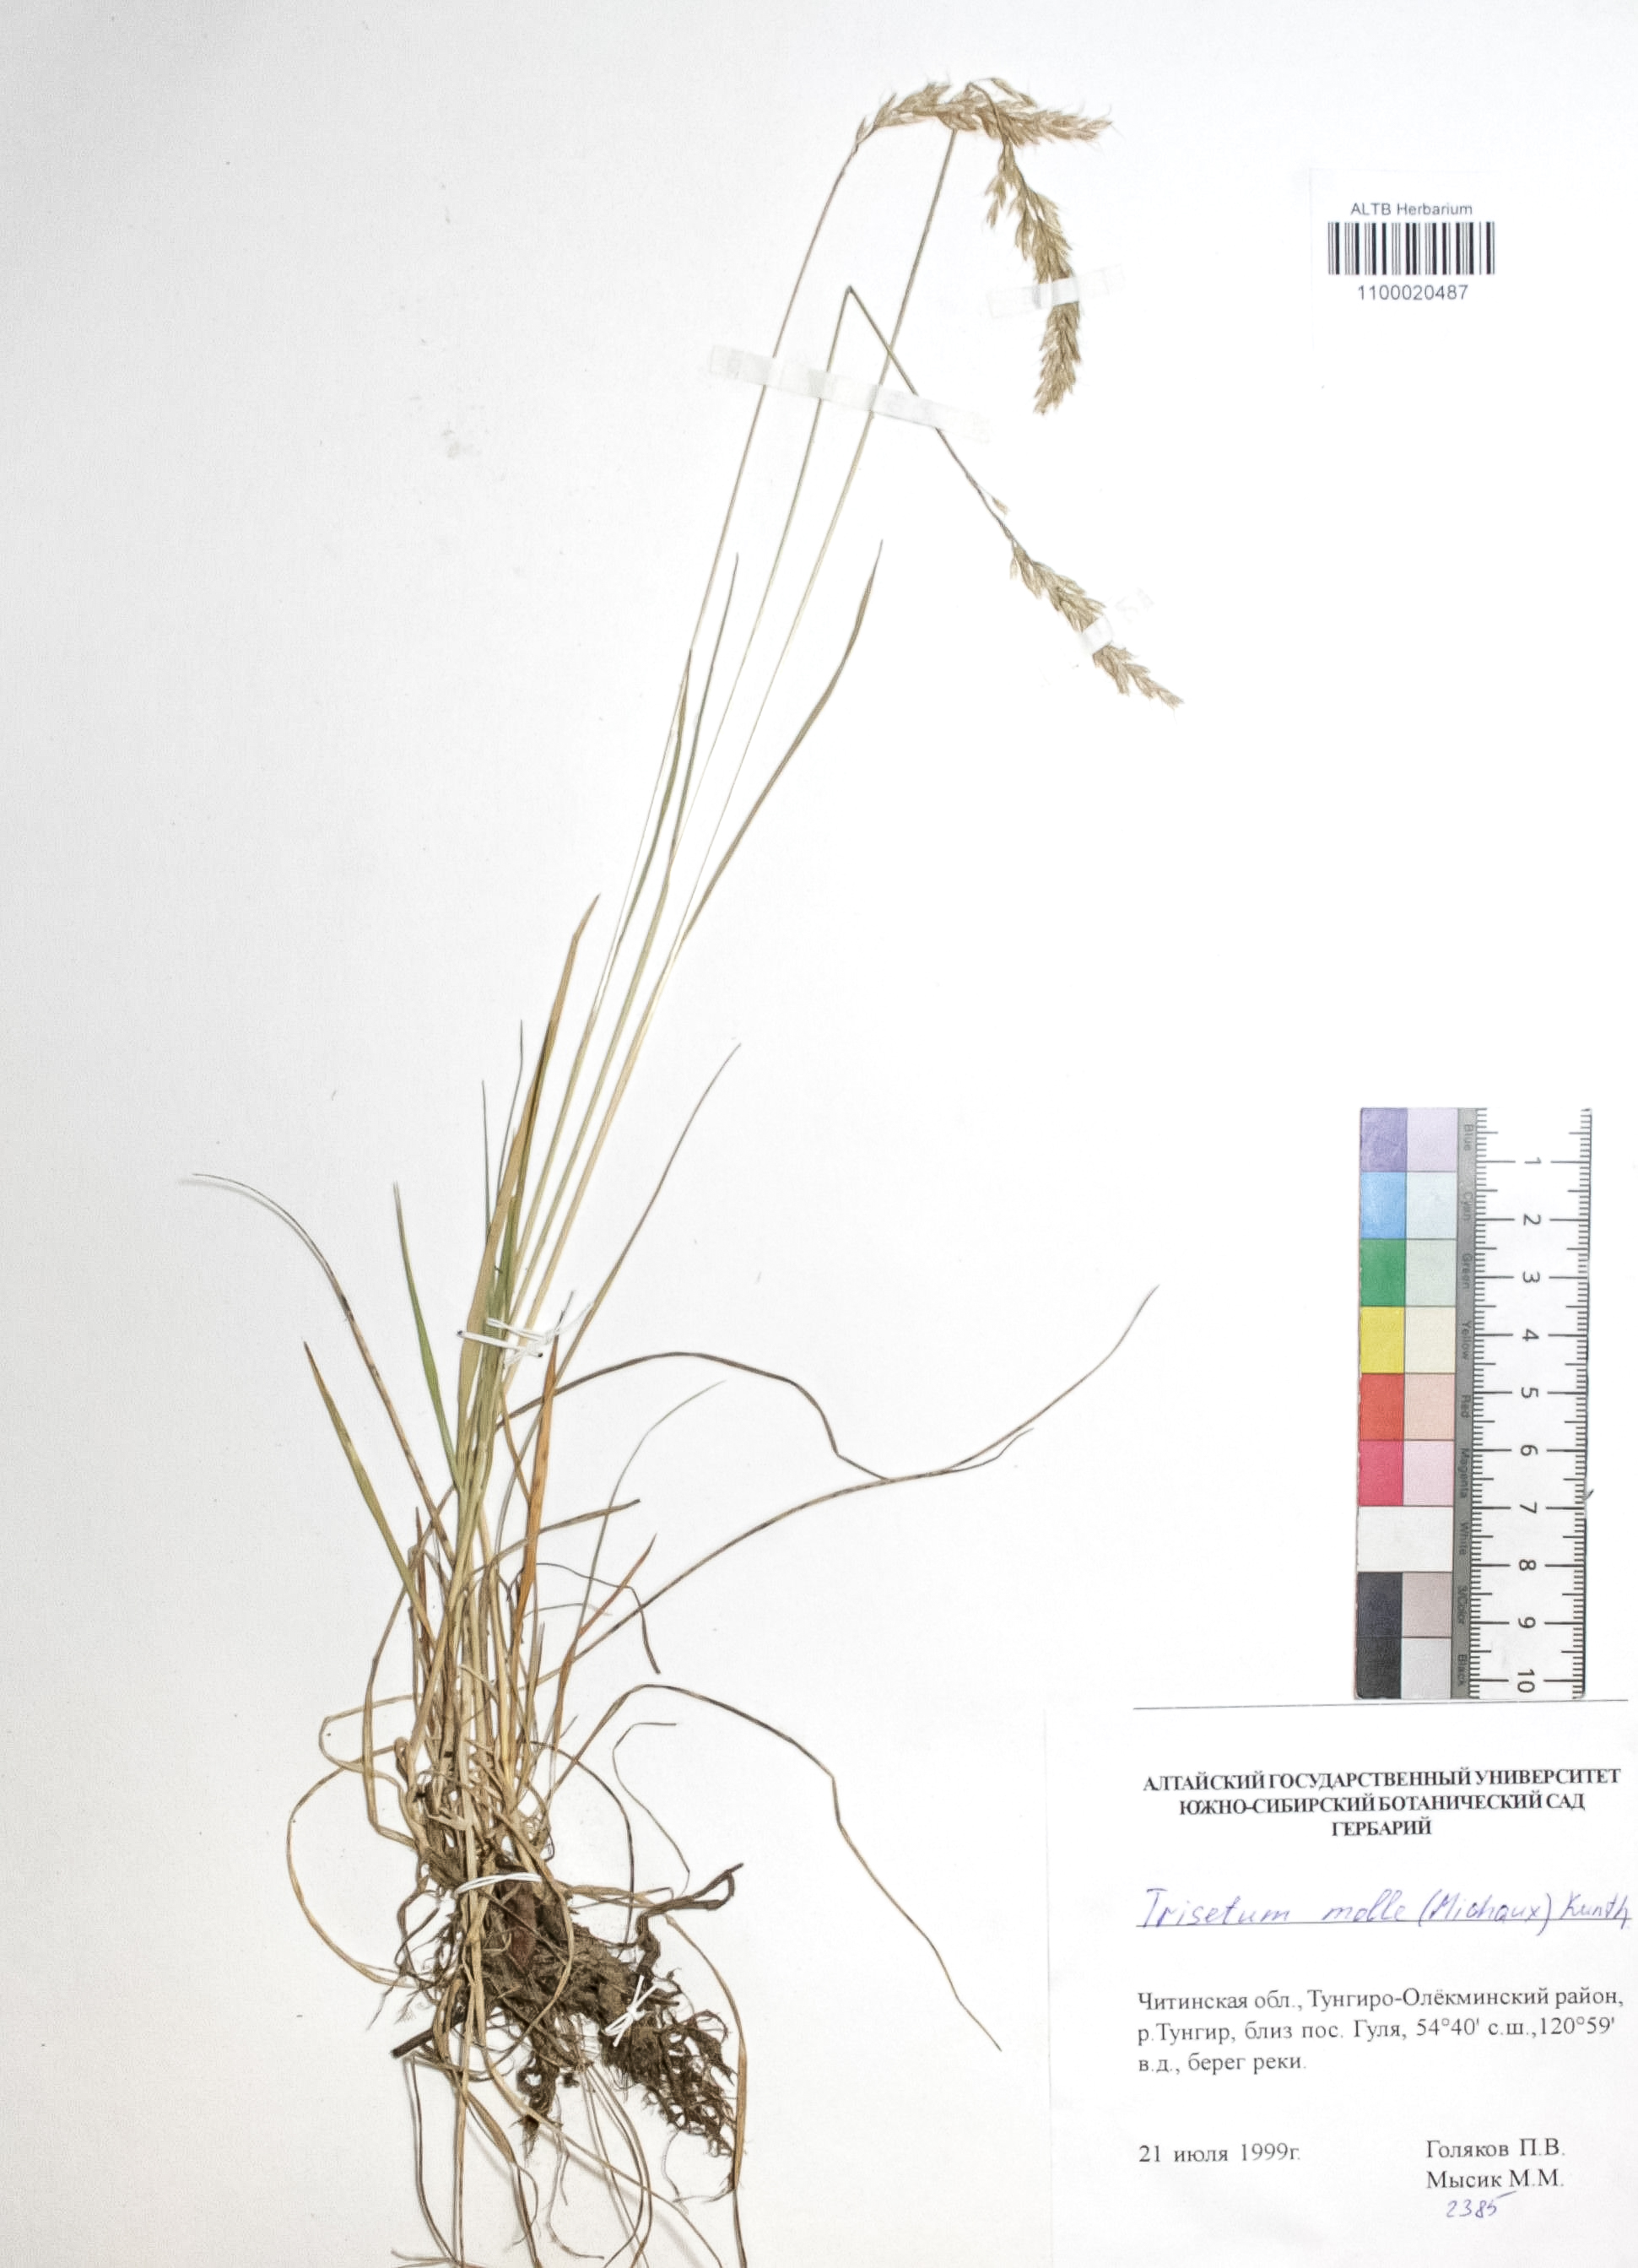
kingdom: Plantae
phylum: Tracheophyta
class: Liliopsida
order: Poales
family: Poaceae
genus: Koeleria
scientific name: Koeleria spicata
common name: Mountain trisetum
